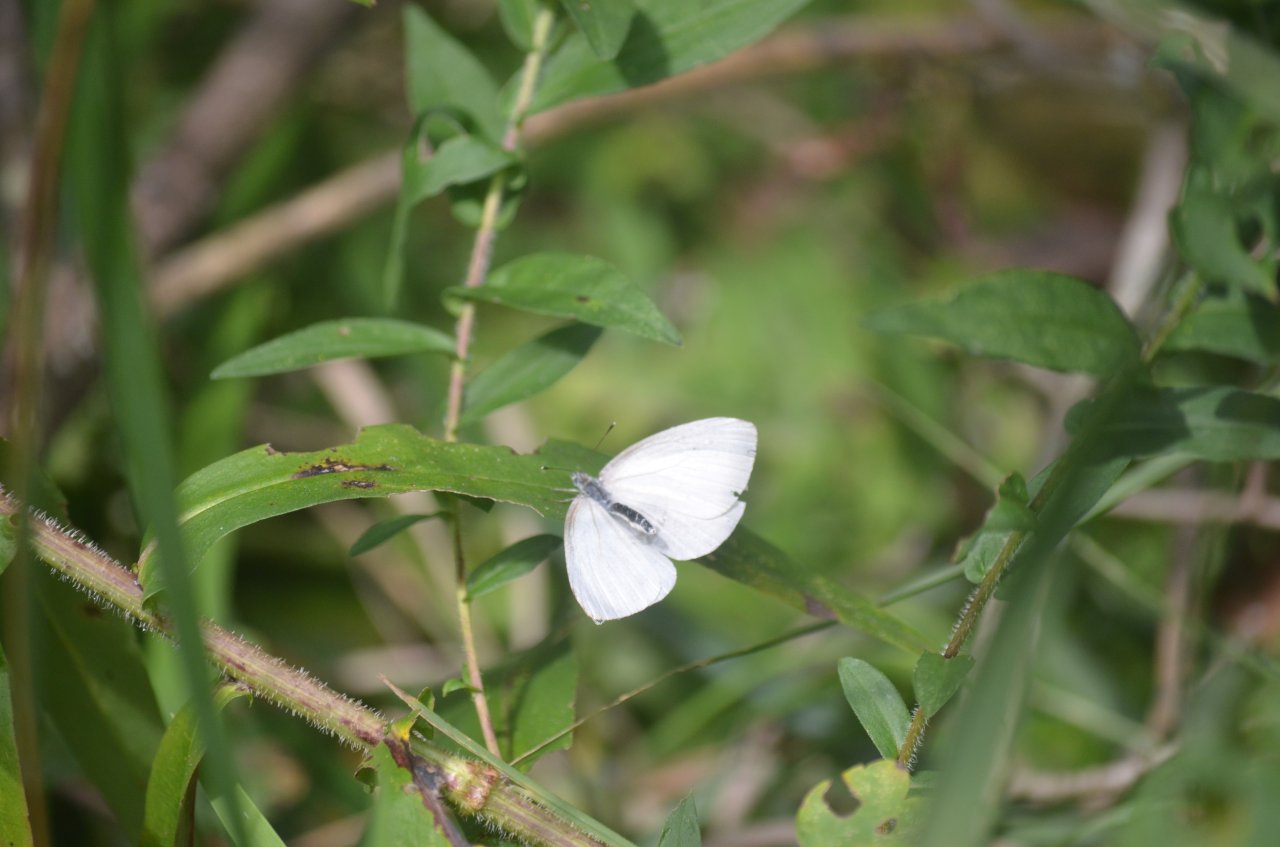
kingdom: Animalia
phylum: Arthropoda
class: Insecta
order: Lepidoptera
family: Pieridae
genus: Pieris
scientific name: Pieris oleracea
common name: Mustard White
